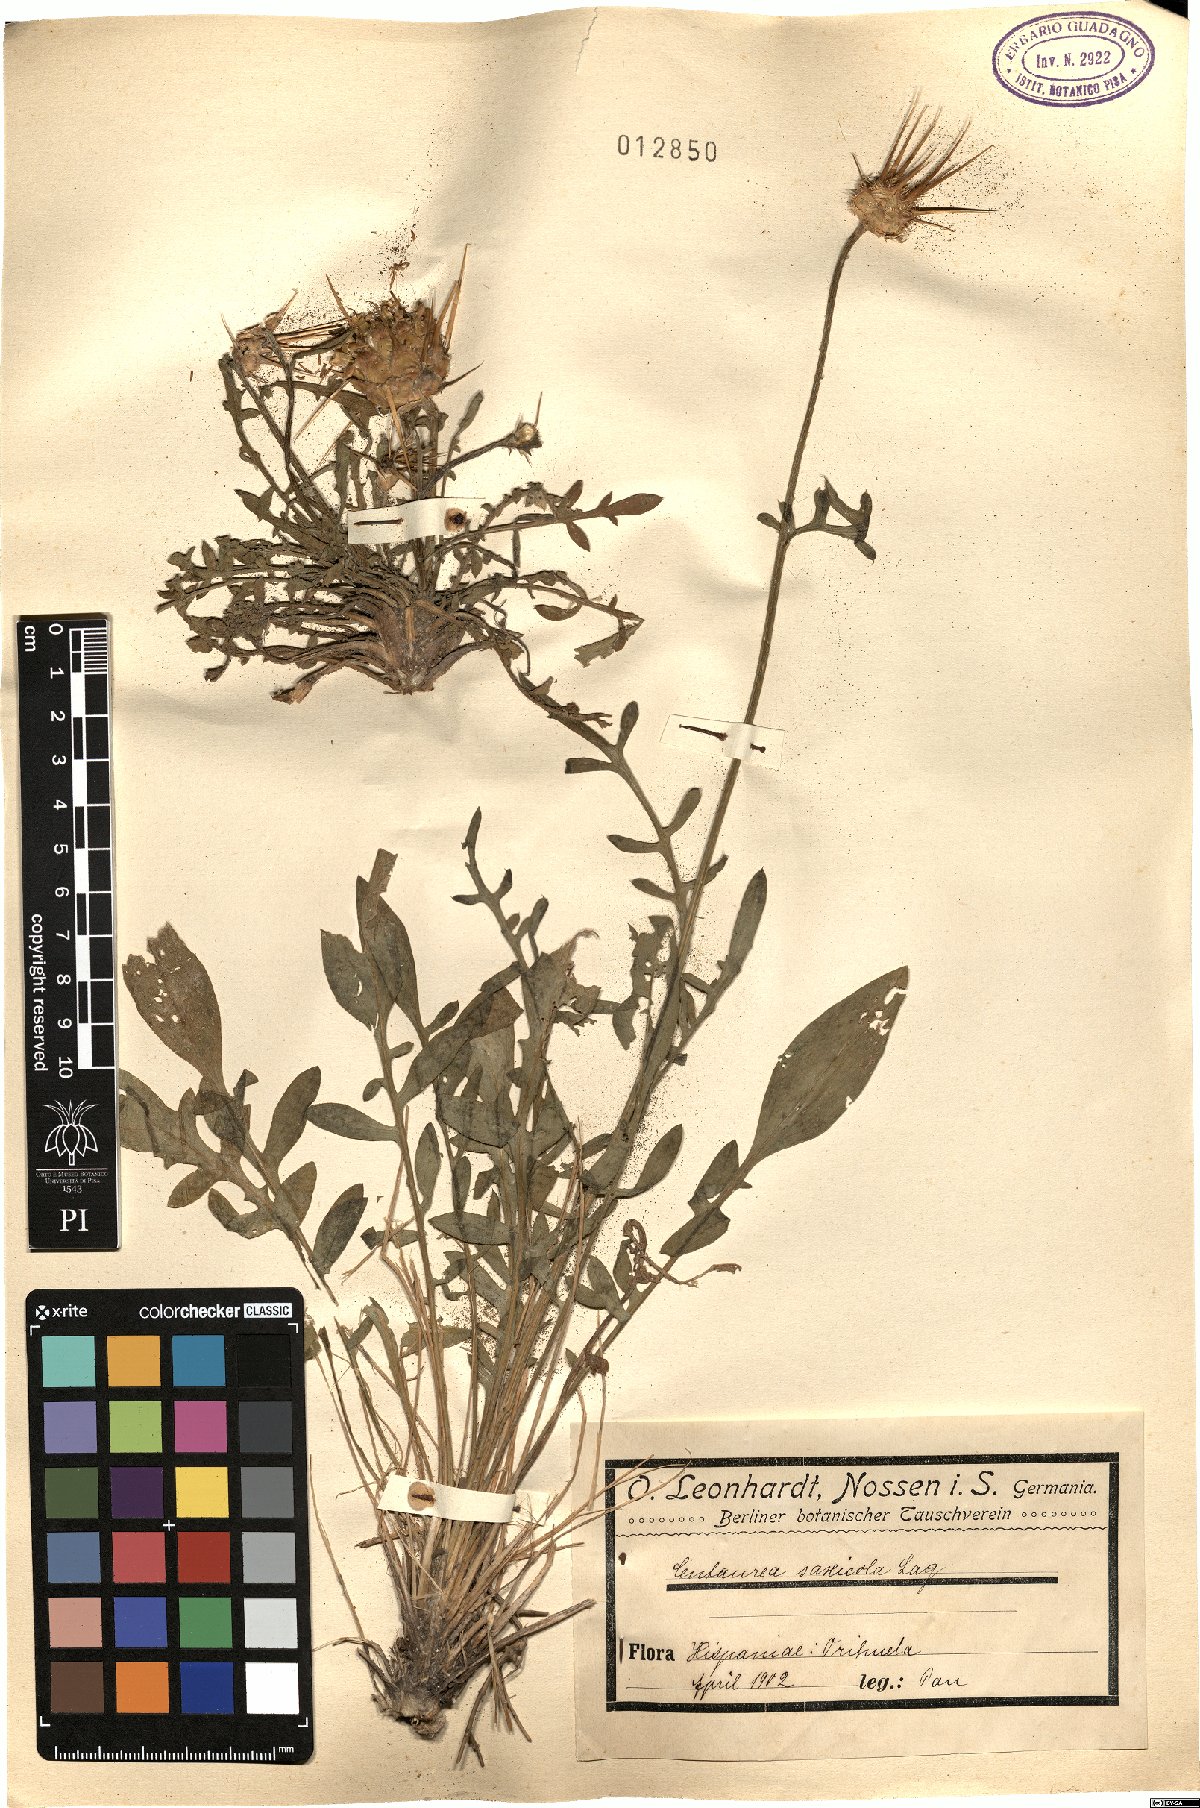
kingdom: Plantae
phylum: Tracheophyta
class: Magnoliopsida
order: Asterales
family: Asteraceae
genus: Centaurea
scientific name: Centaurea saxicola
